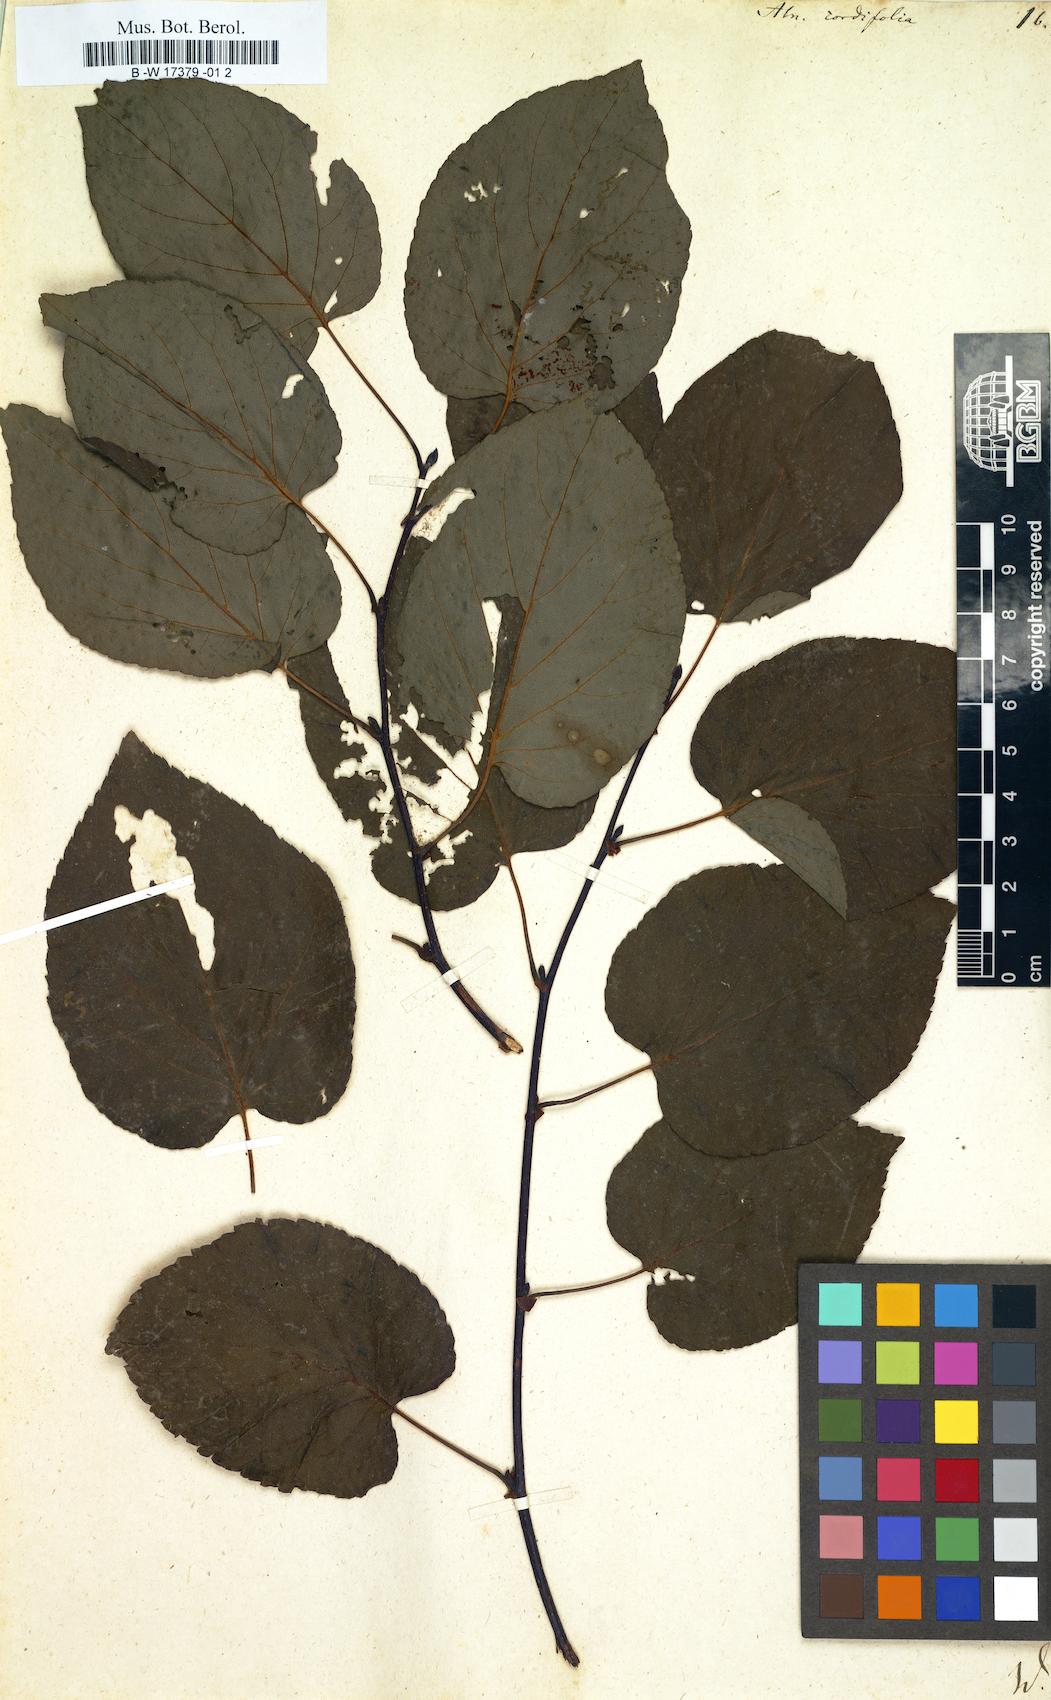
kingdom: Plantae
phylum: Tracheophyta
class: Magnoliopsida
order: Fagales
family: Betulaceae
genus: Alnus
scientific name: Alnus cordata
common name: Italian alder
